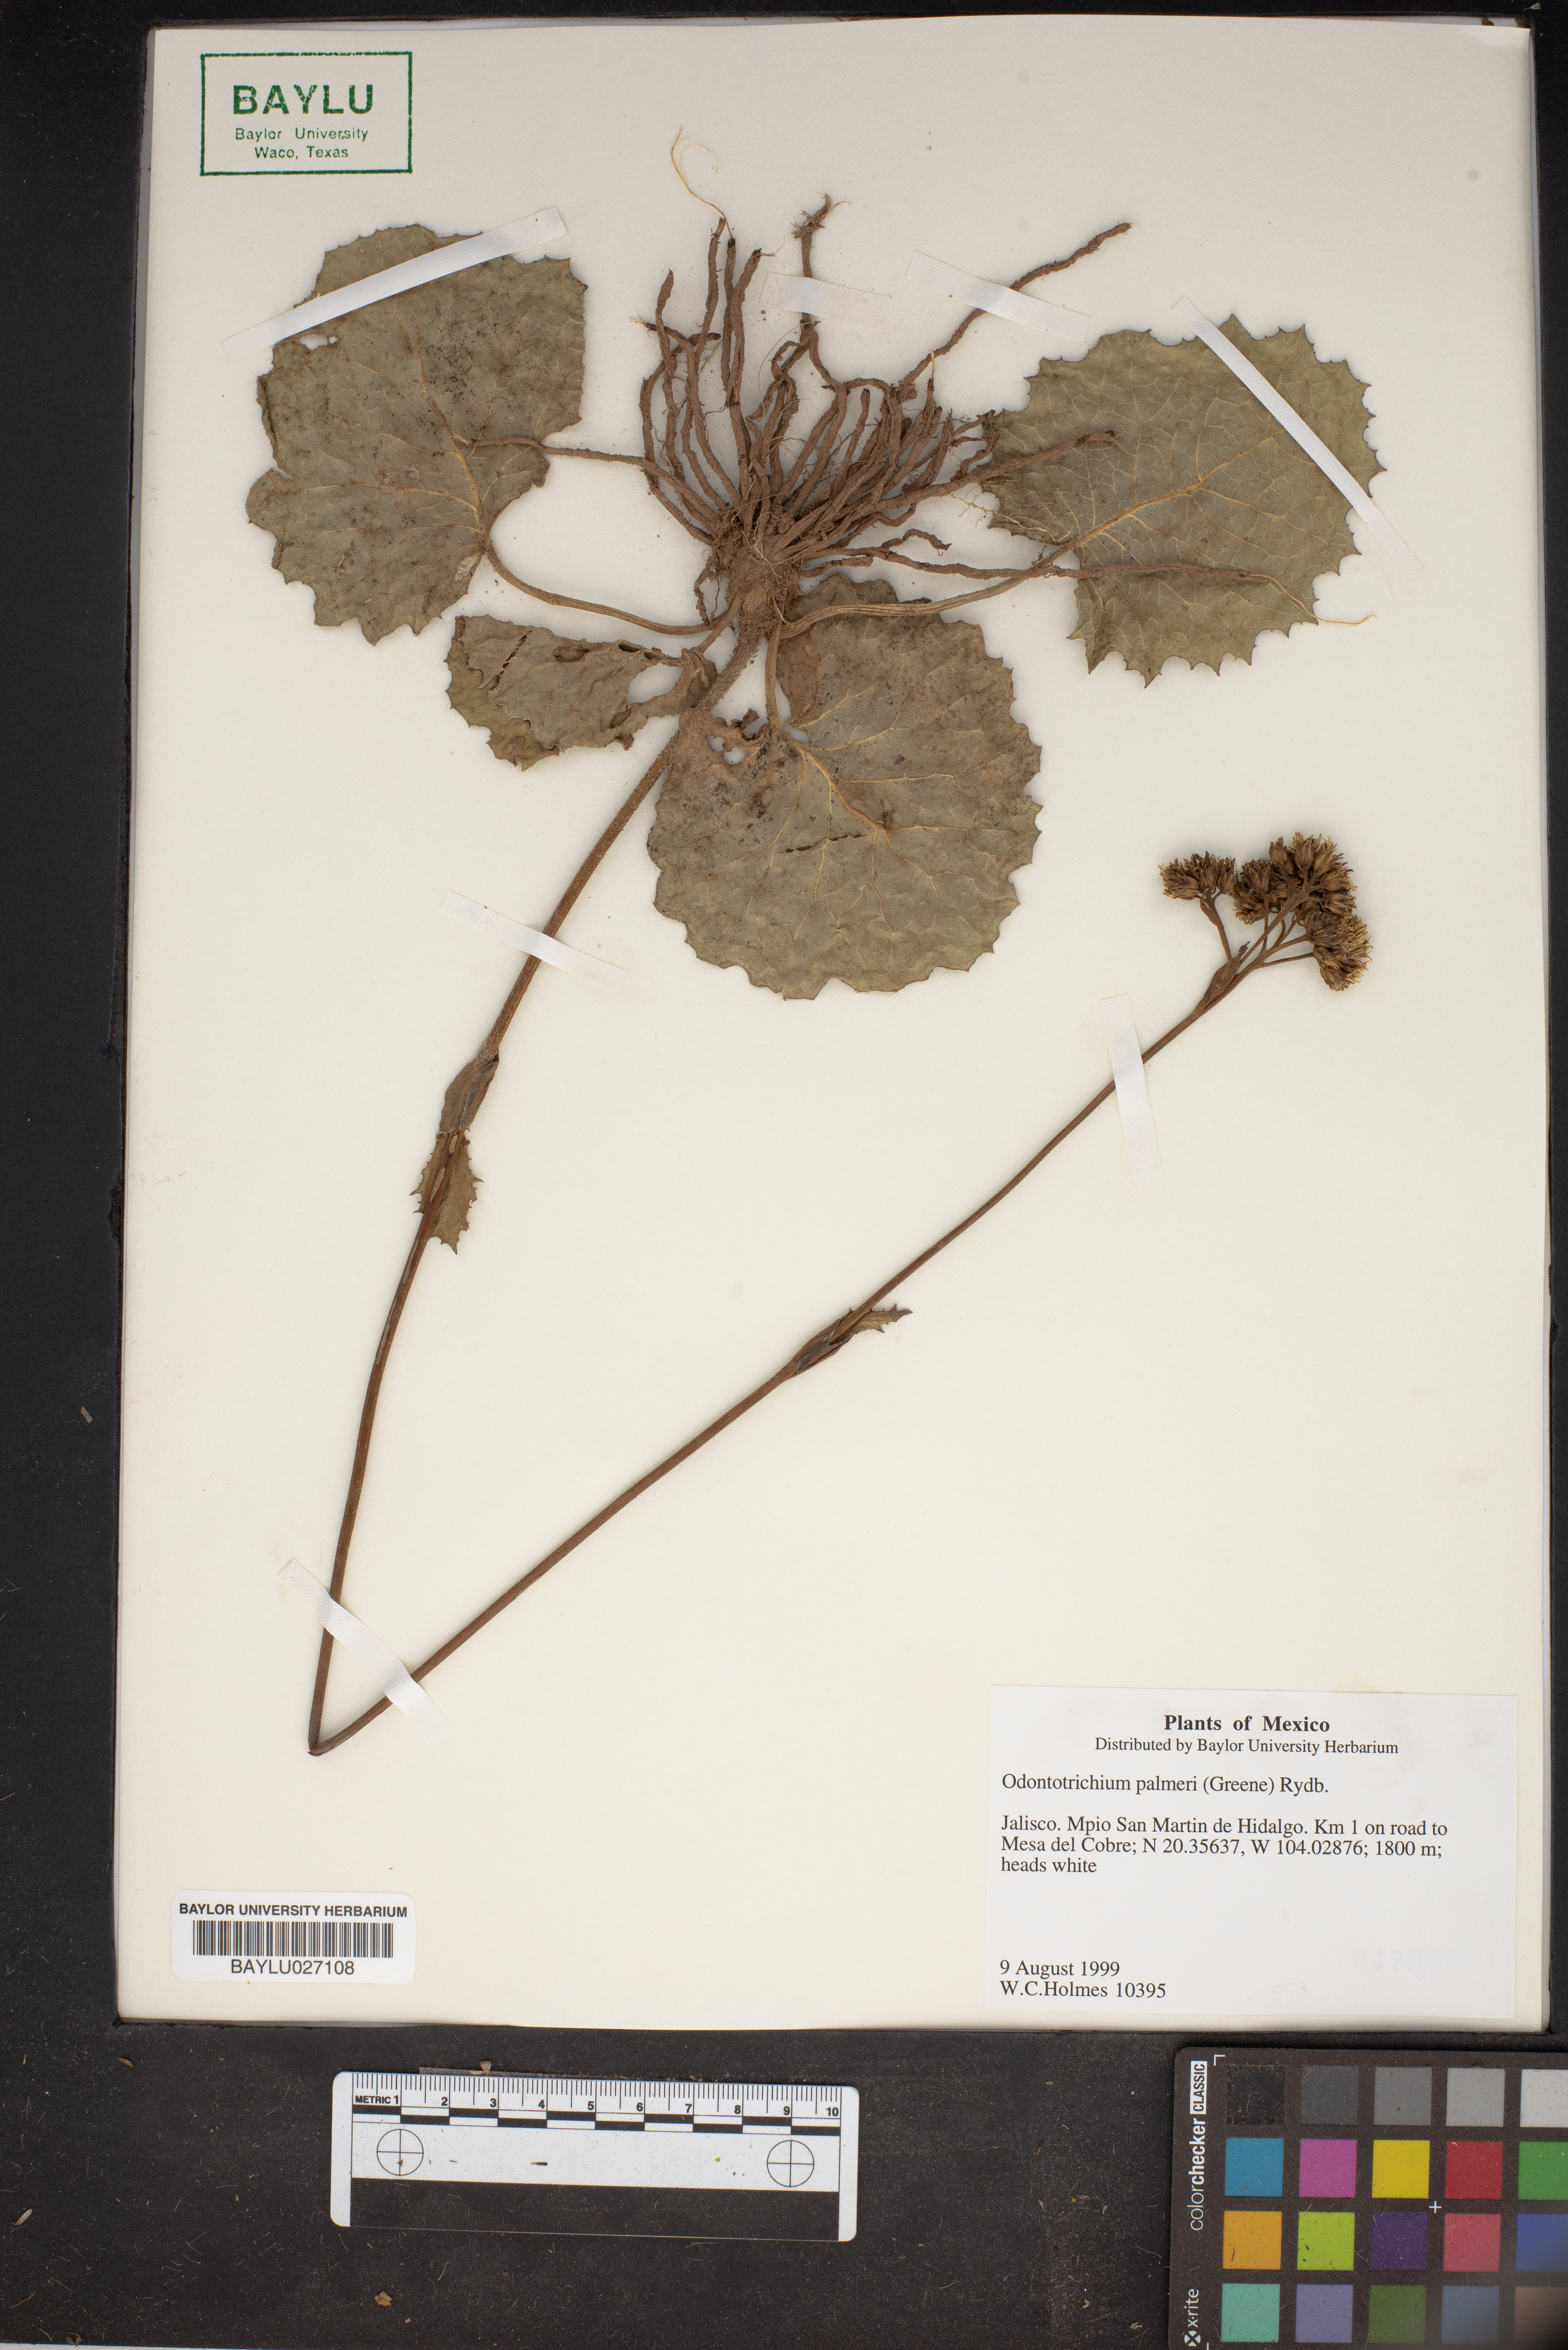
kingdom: Plantae
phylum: Tracheophyta
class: Magnoliopsida
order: Asterales
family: Asteraceae
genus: Psacalium
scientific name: Psacalium palmeri
